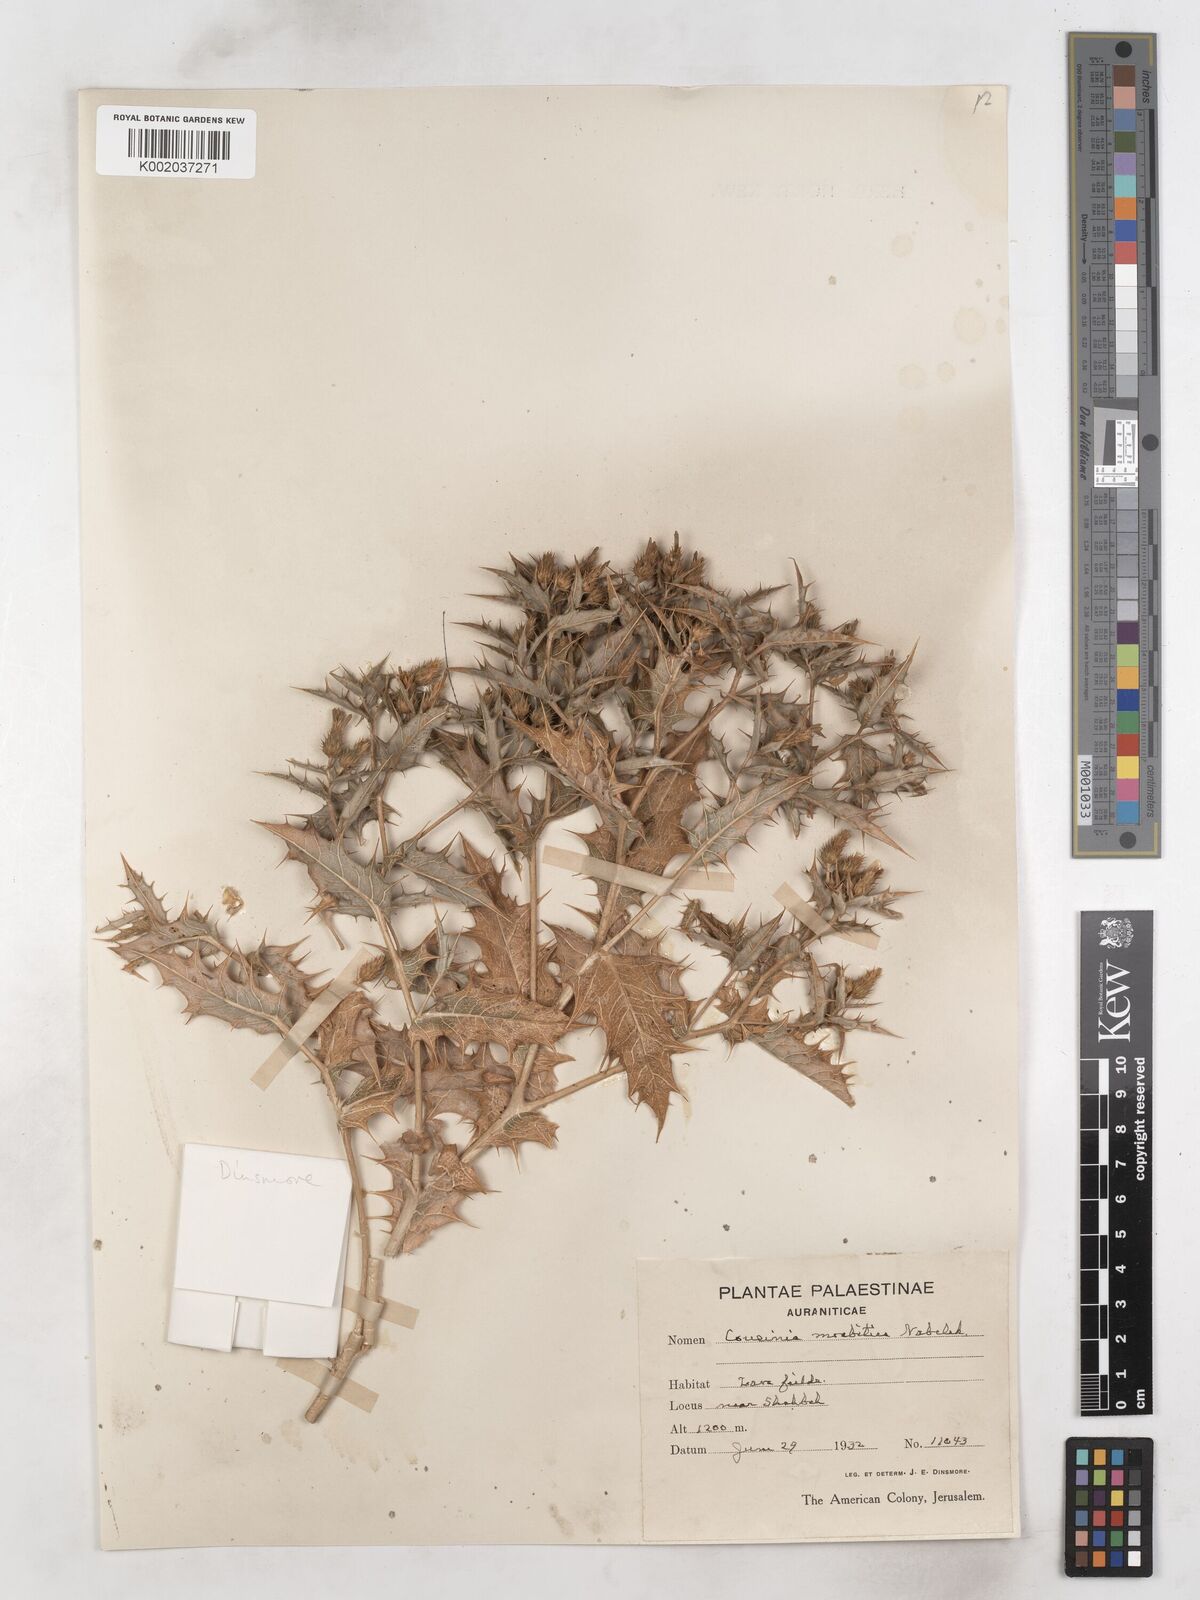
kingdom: Plantae
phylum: Tracheophyta
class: Magnoliopsida
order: Asterales
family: Asteraceae
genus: Cousinia
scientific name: Cousinia moabitica
